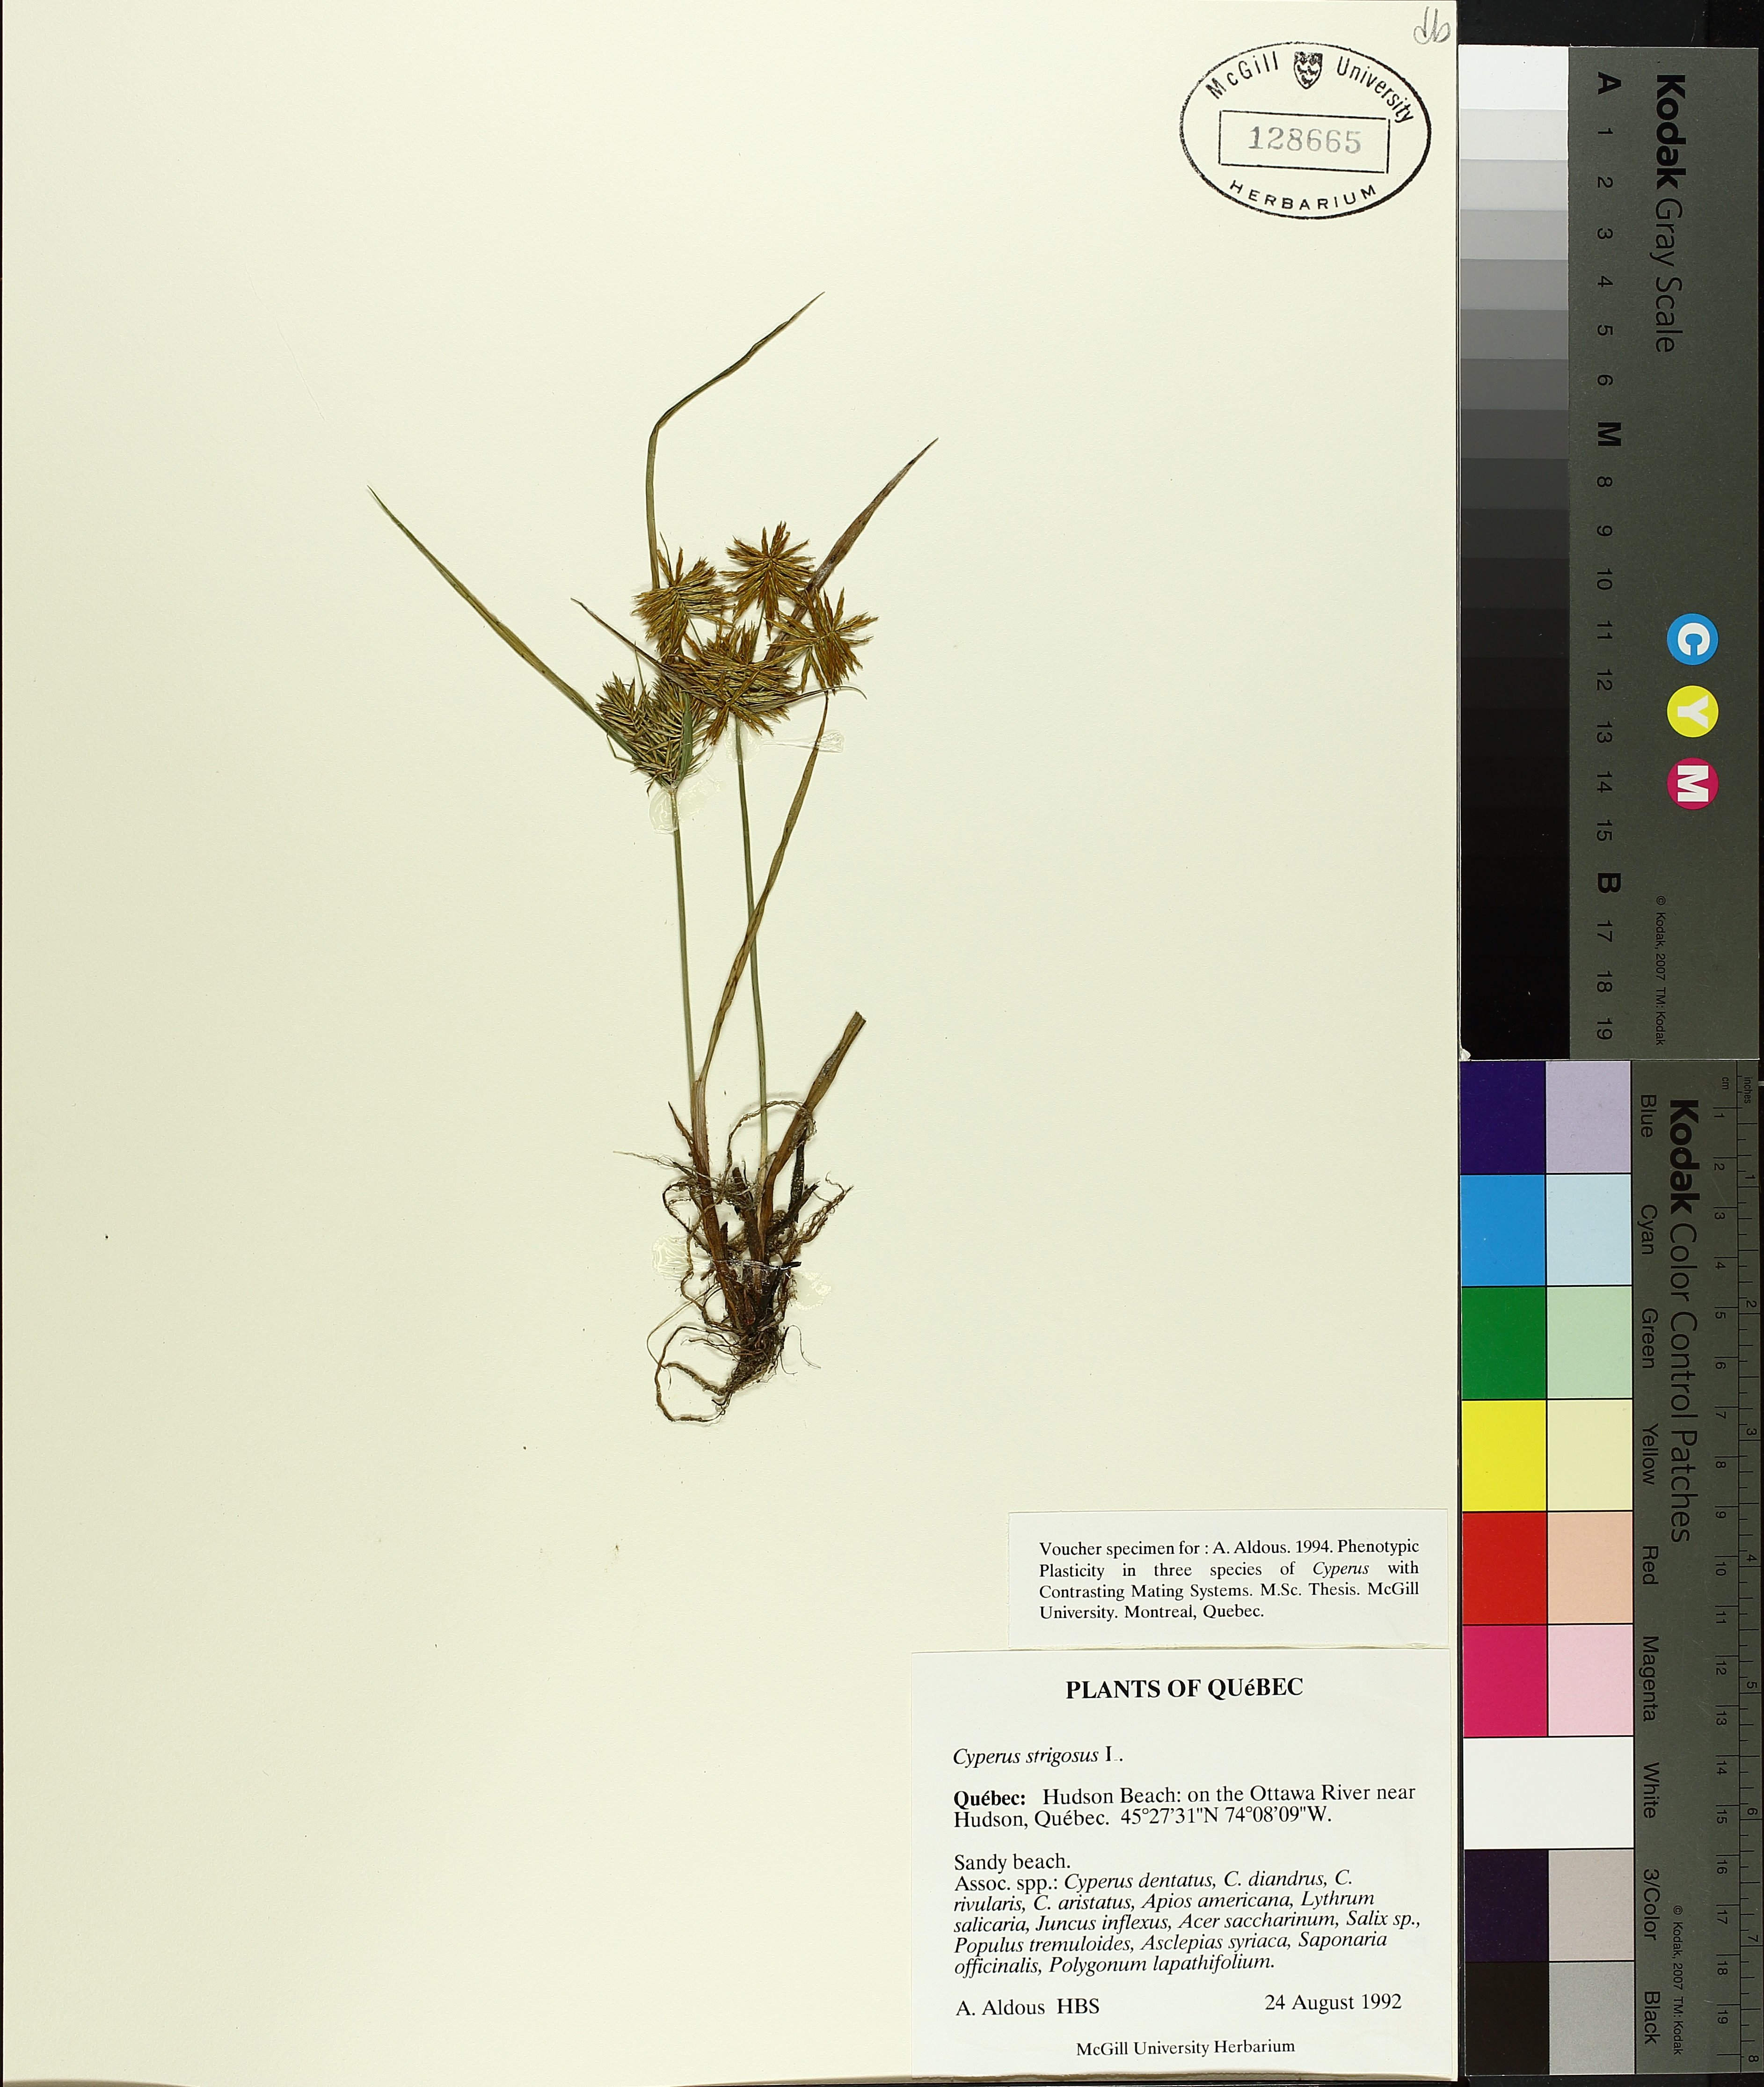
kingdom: Plantae
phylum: Tracheophyta
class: Liliopsida
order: Poales
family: Cyperaceae
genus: Cyperus
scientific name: Cyperus strigosus
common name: False nutsedge
